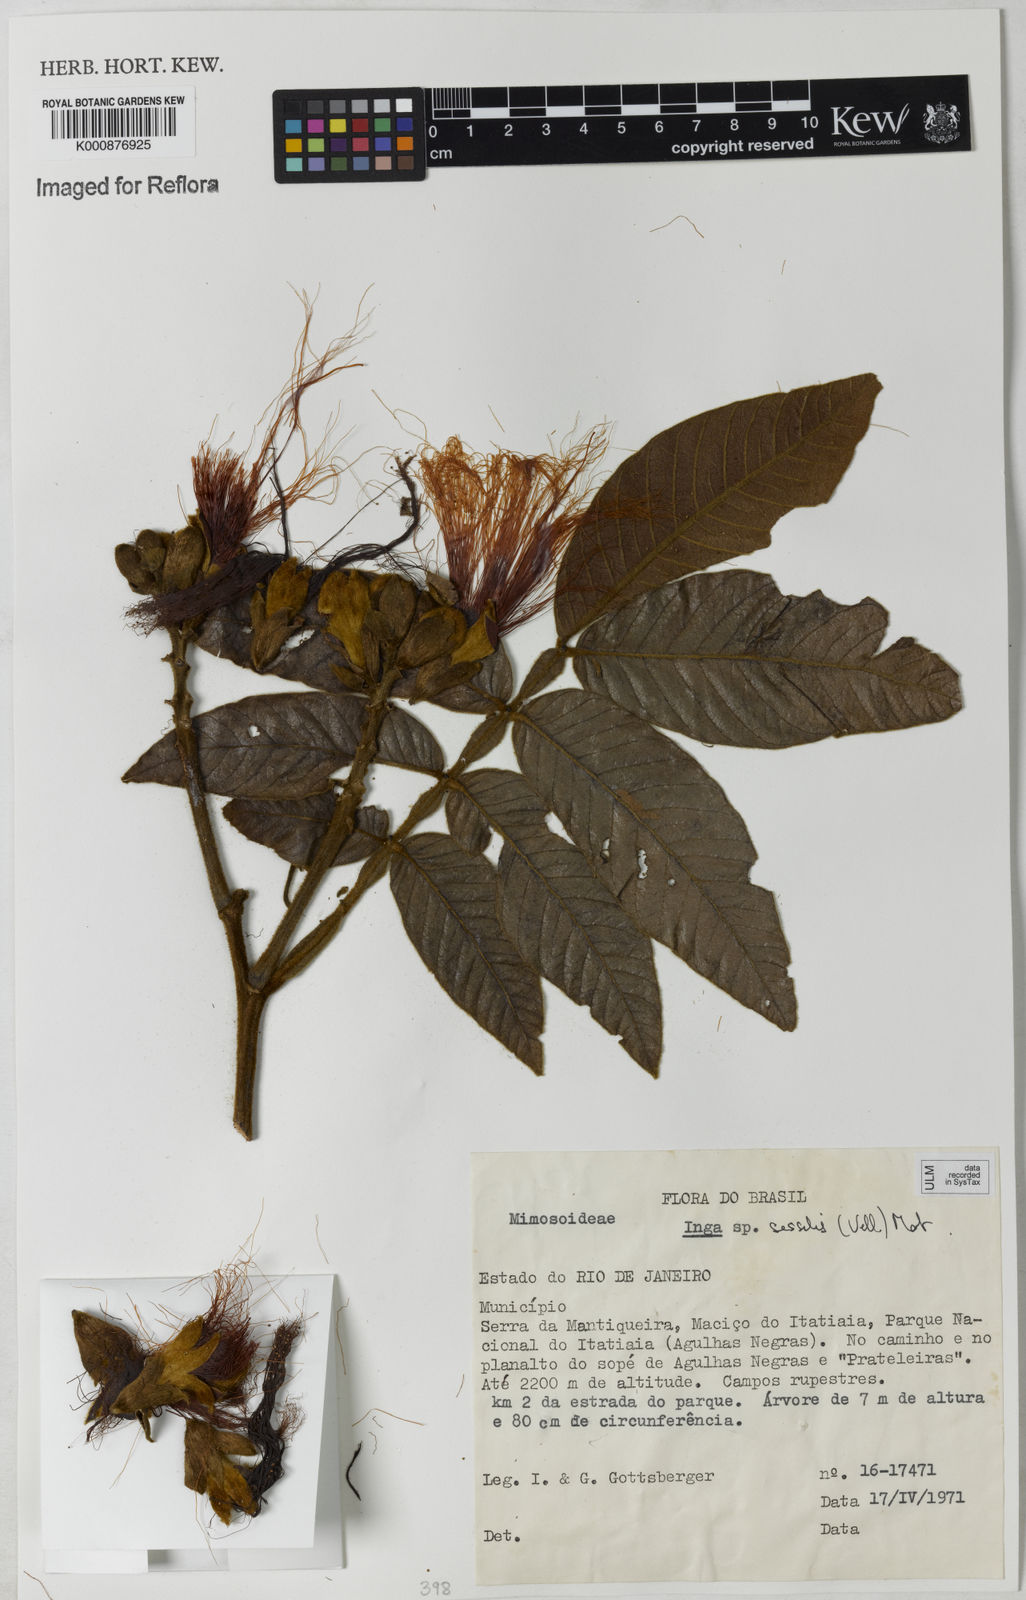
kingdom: Plantae
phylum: Tracheophyta
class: Magnoliopsida
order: Fabales
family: Fabaceae
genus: Inga
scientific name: Inga sessilis
